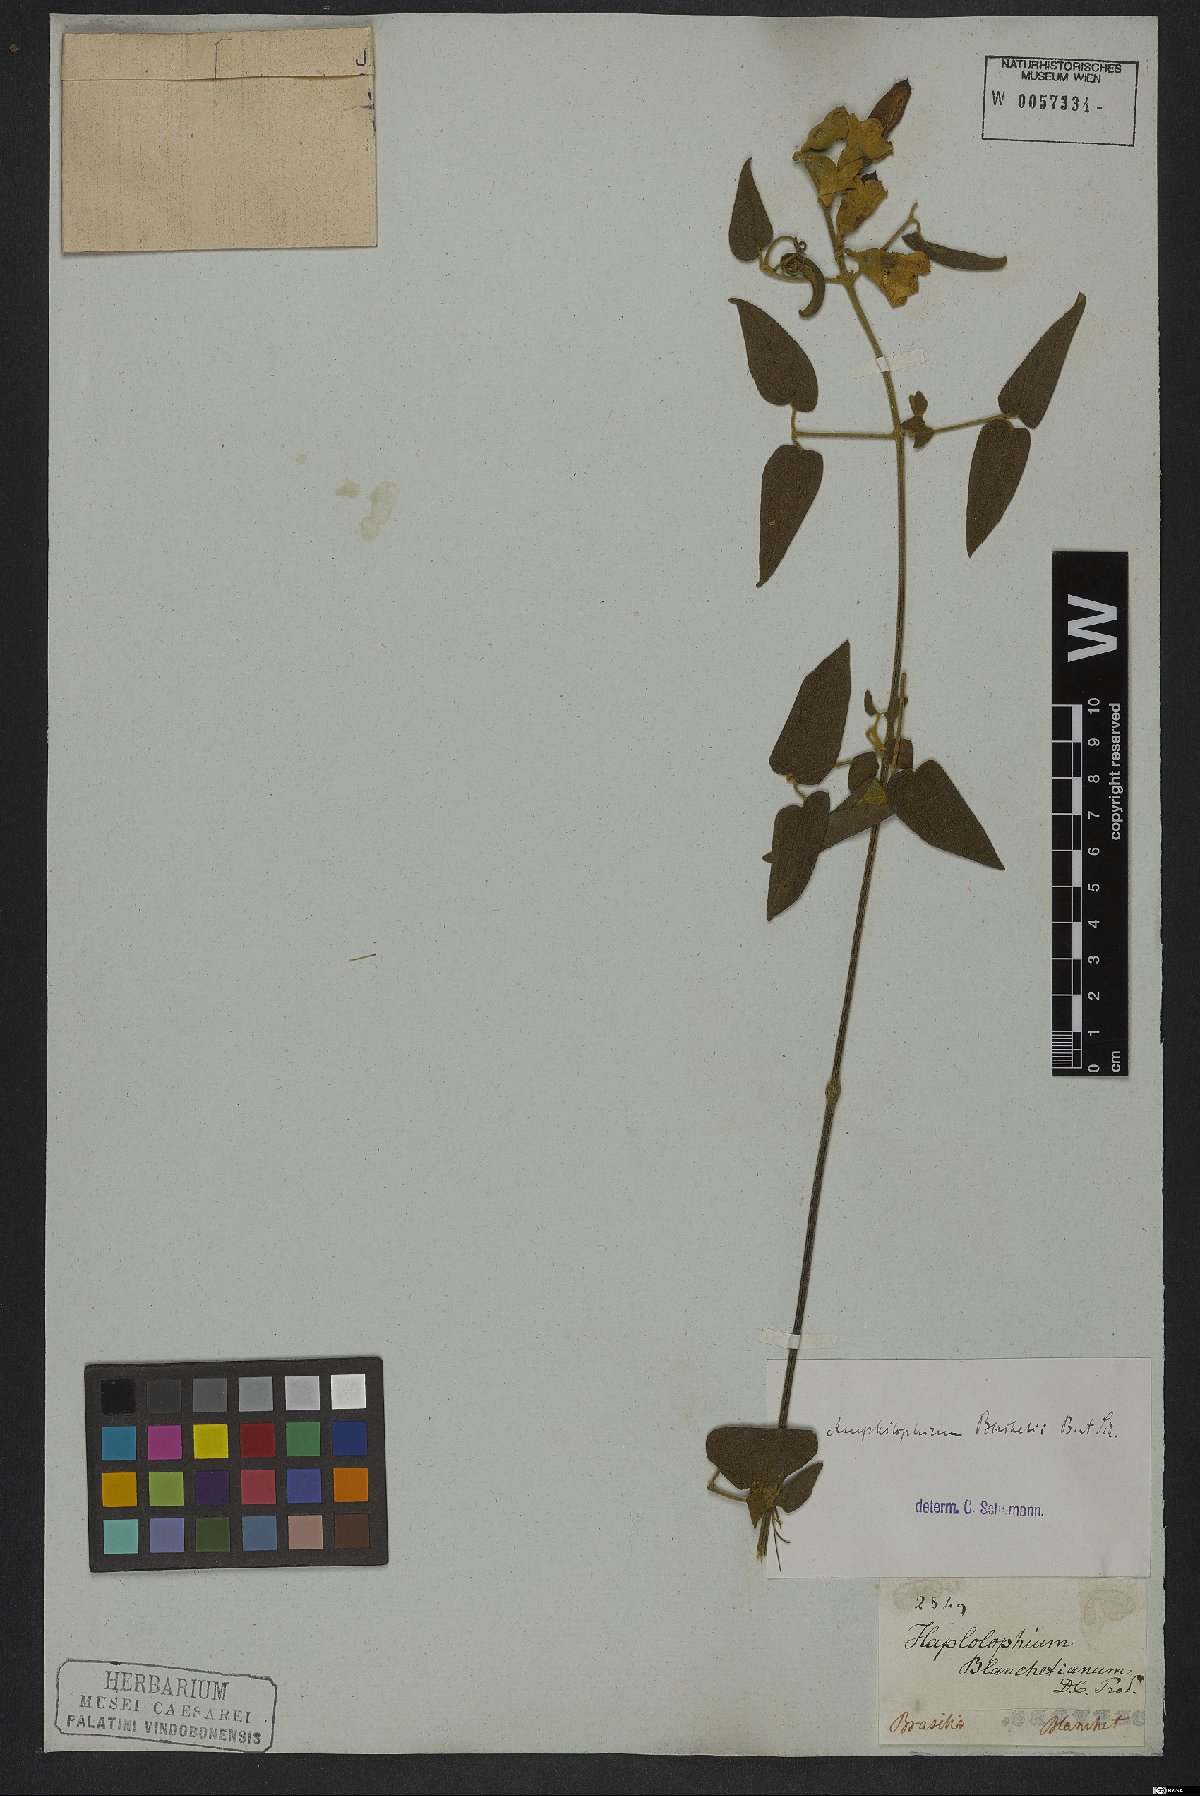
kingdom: Plantae
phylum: Tracheophyta
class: Magnoliopsida
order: Lamiales
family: Bignoniaceae
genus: Amphilophium
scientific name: Amphilophium blanchetii
